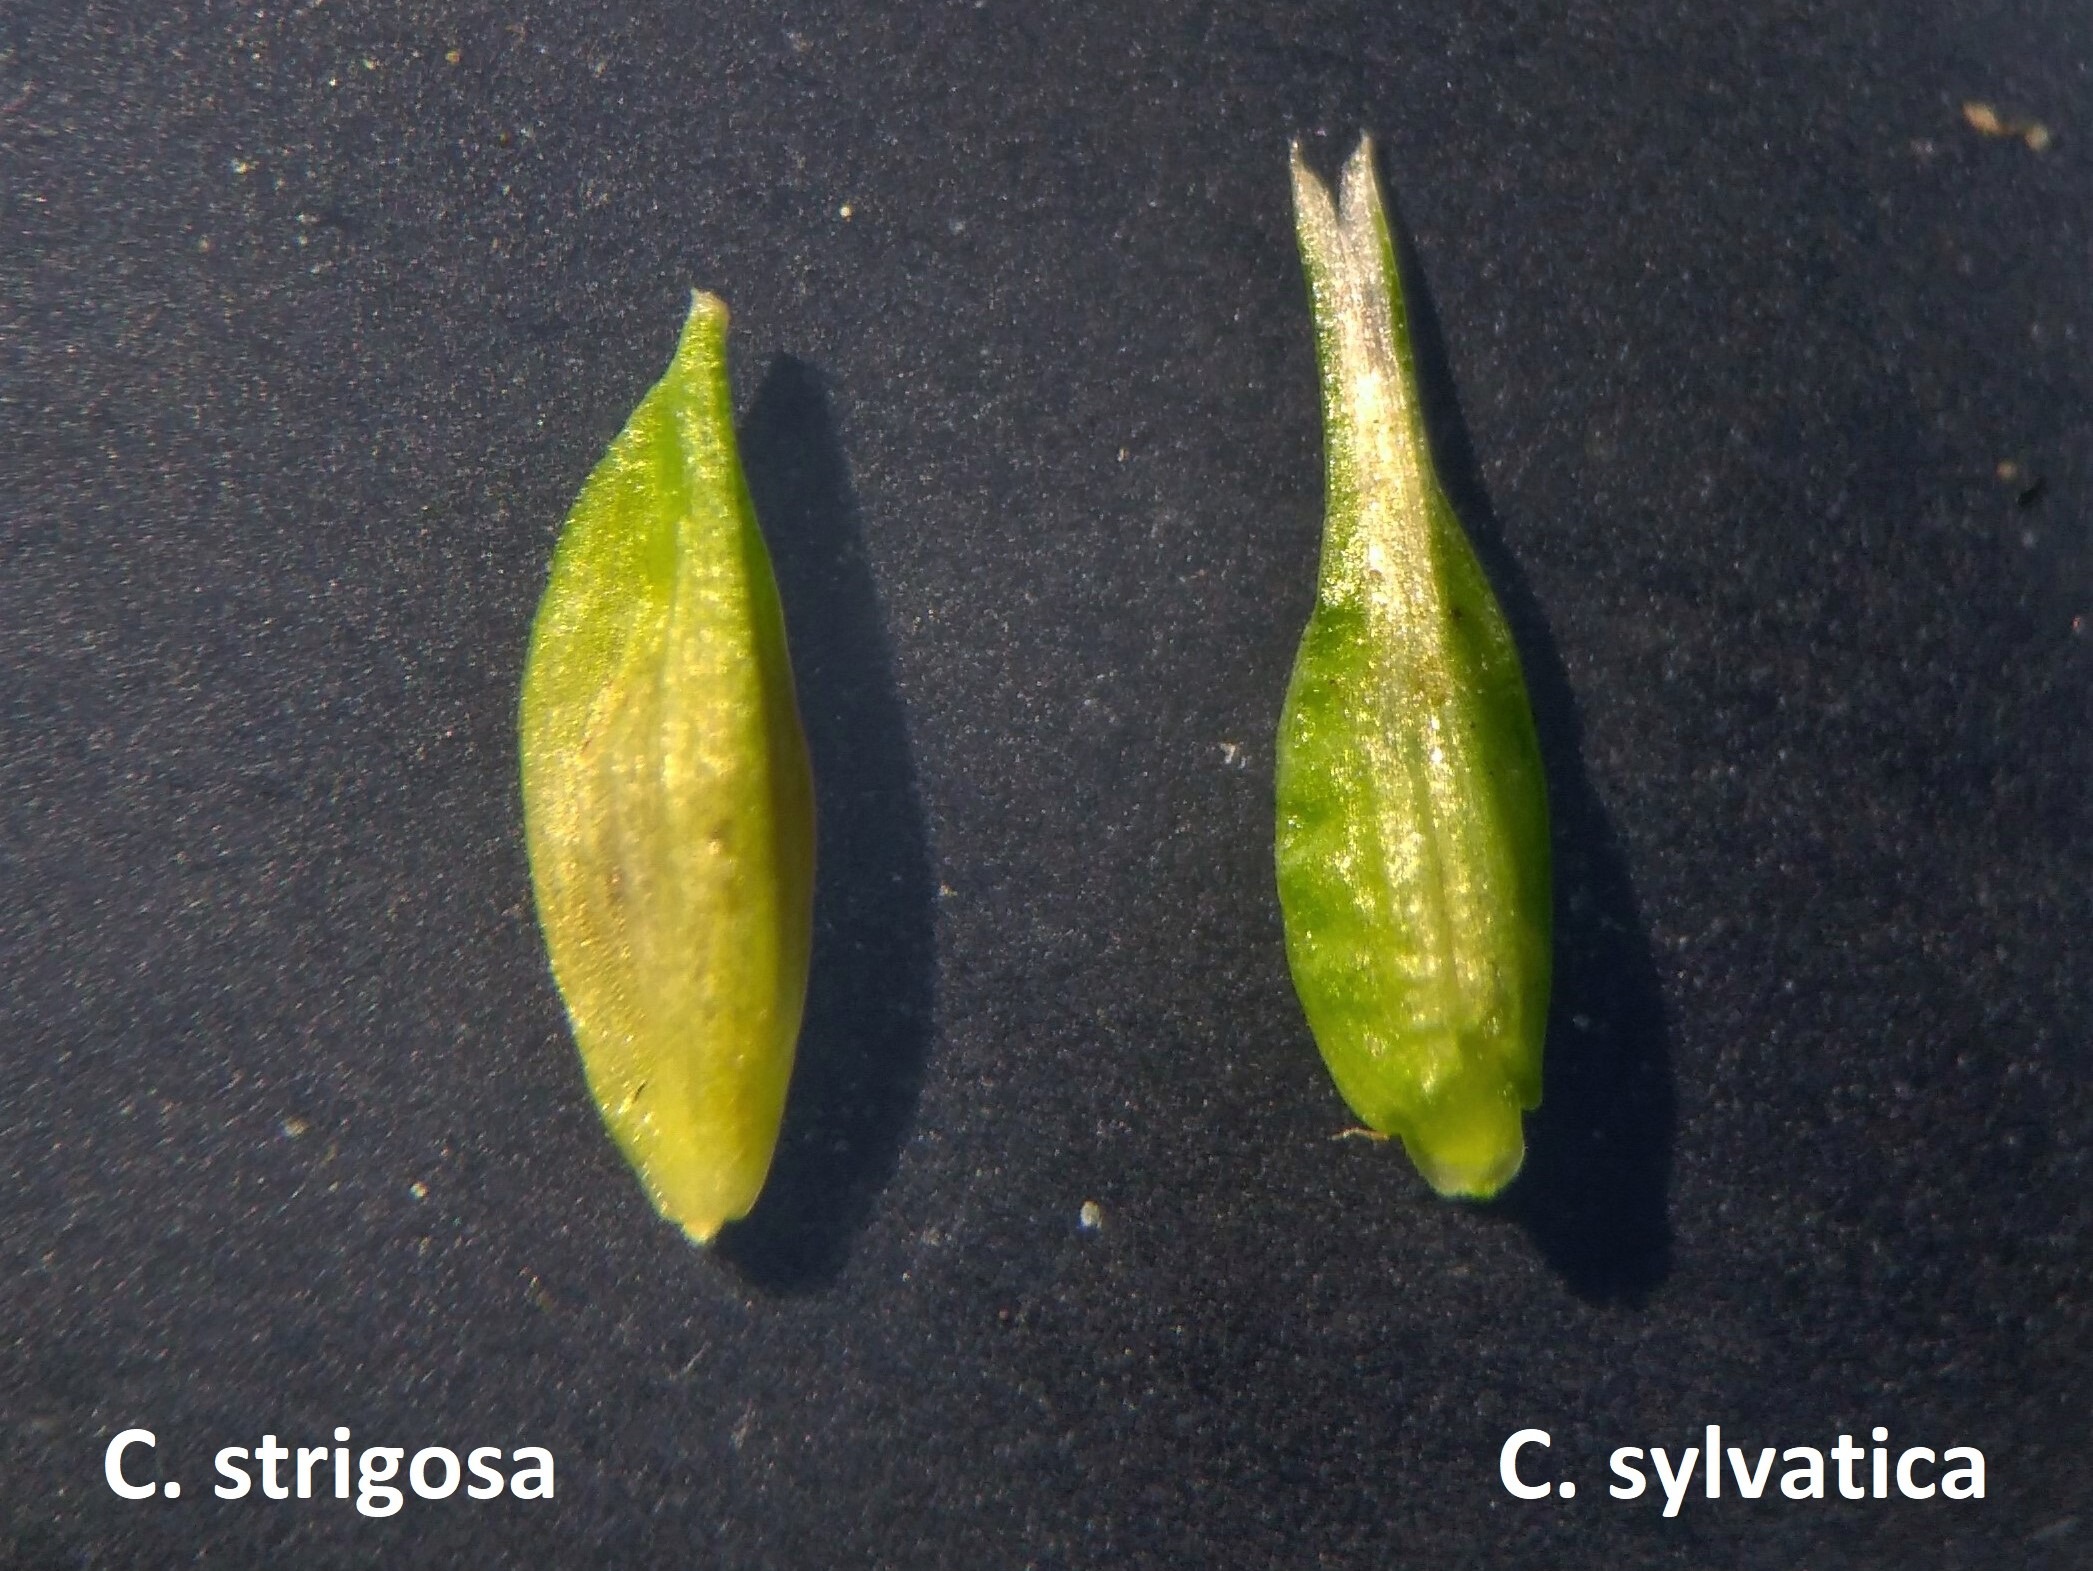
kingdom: Plantae
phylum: Tracheophyta
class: Liliopsida
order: Poales
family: Cyperaceae
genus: Carex
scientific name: Carex strigosa
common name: Tyndakset star
